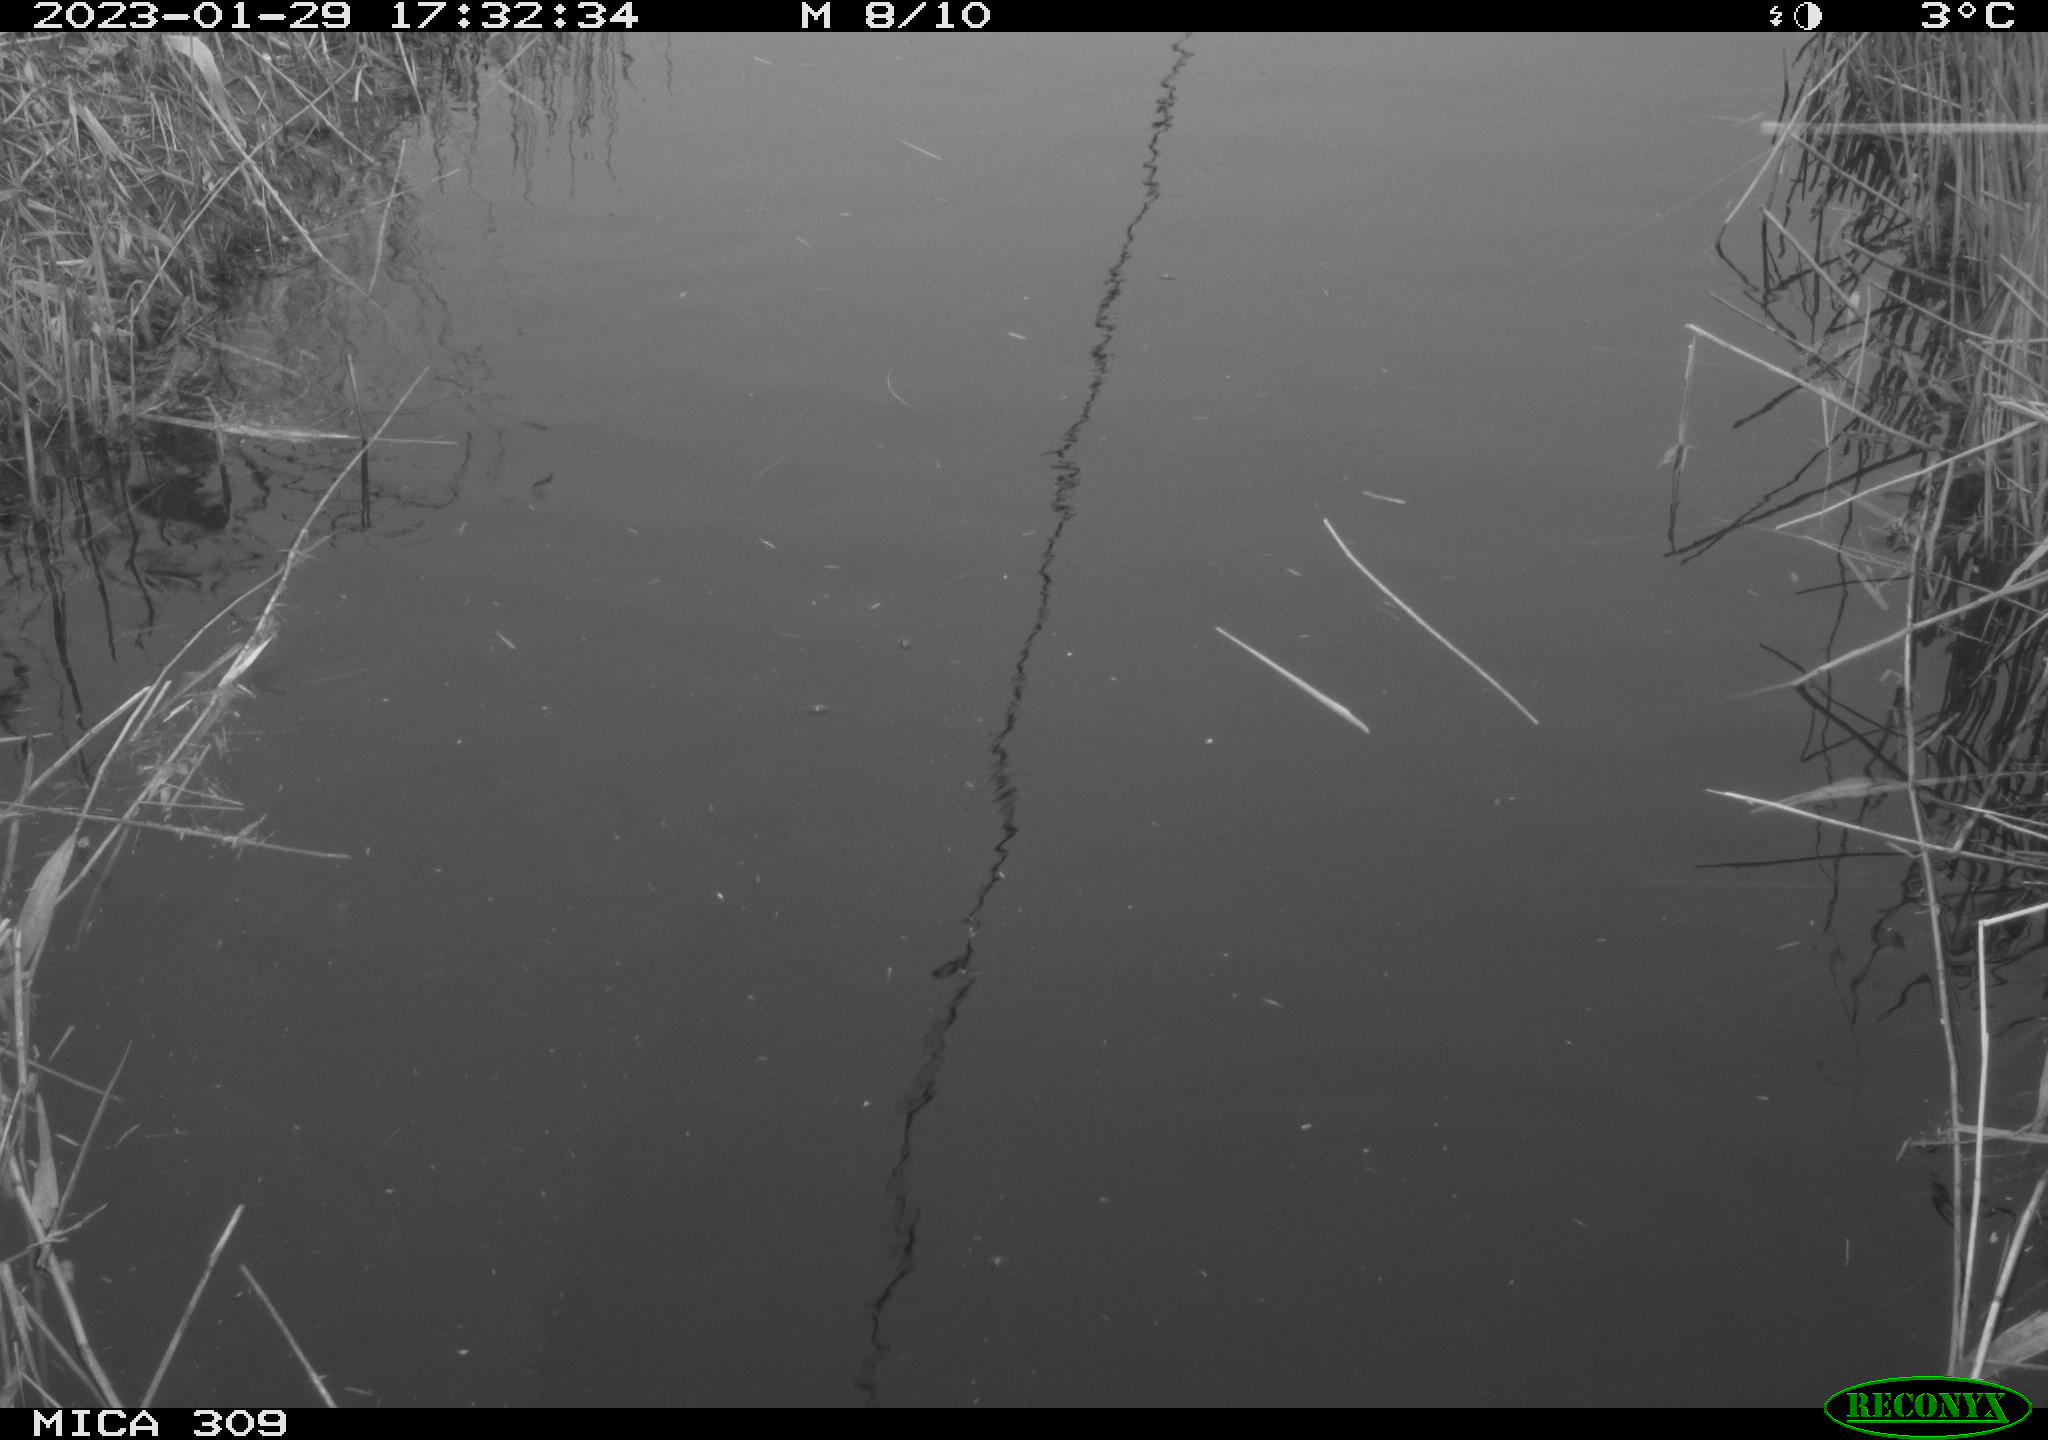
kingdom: Animalia
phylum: Chordata
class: Aves
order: Gruiformes
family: Rallidae
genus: Fulica
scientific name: Fulica atra
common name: Eurasian coot
